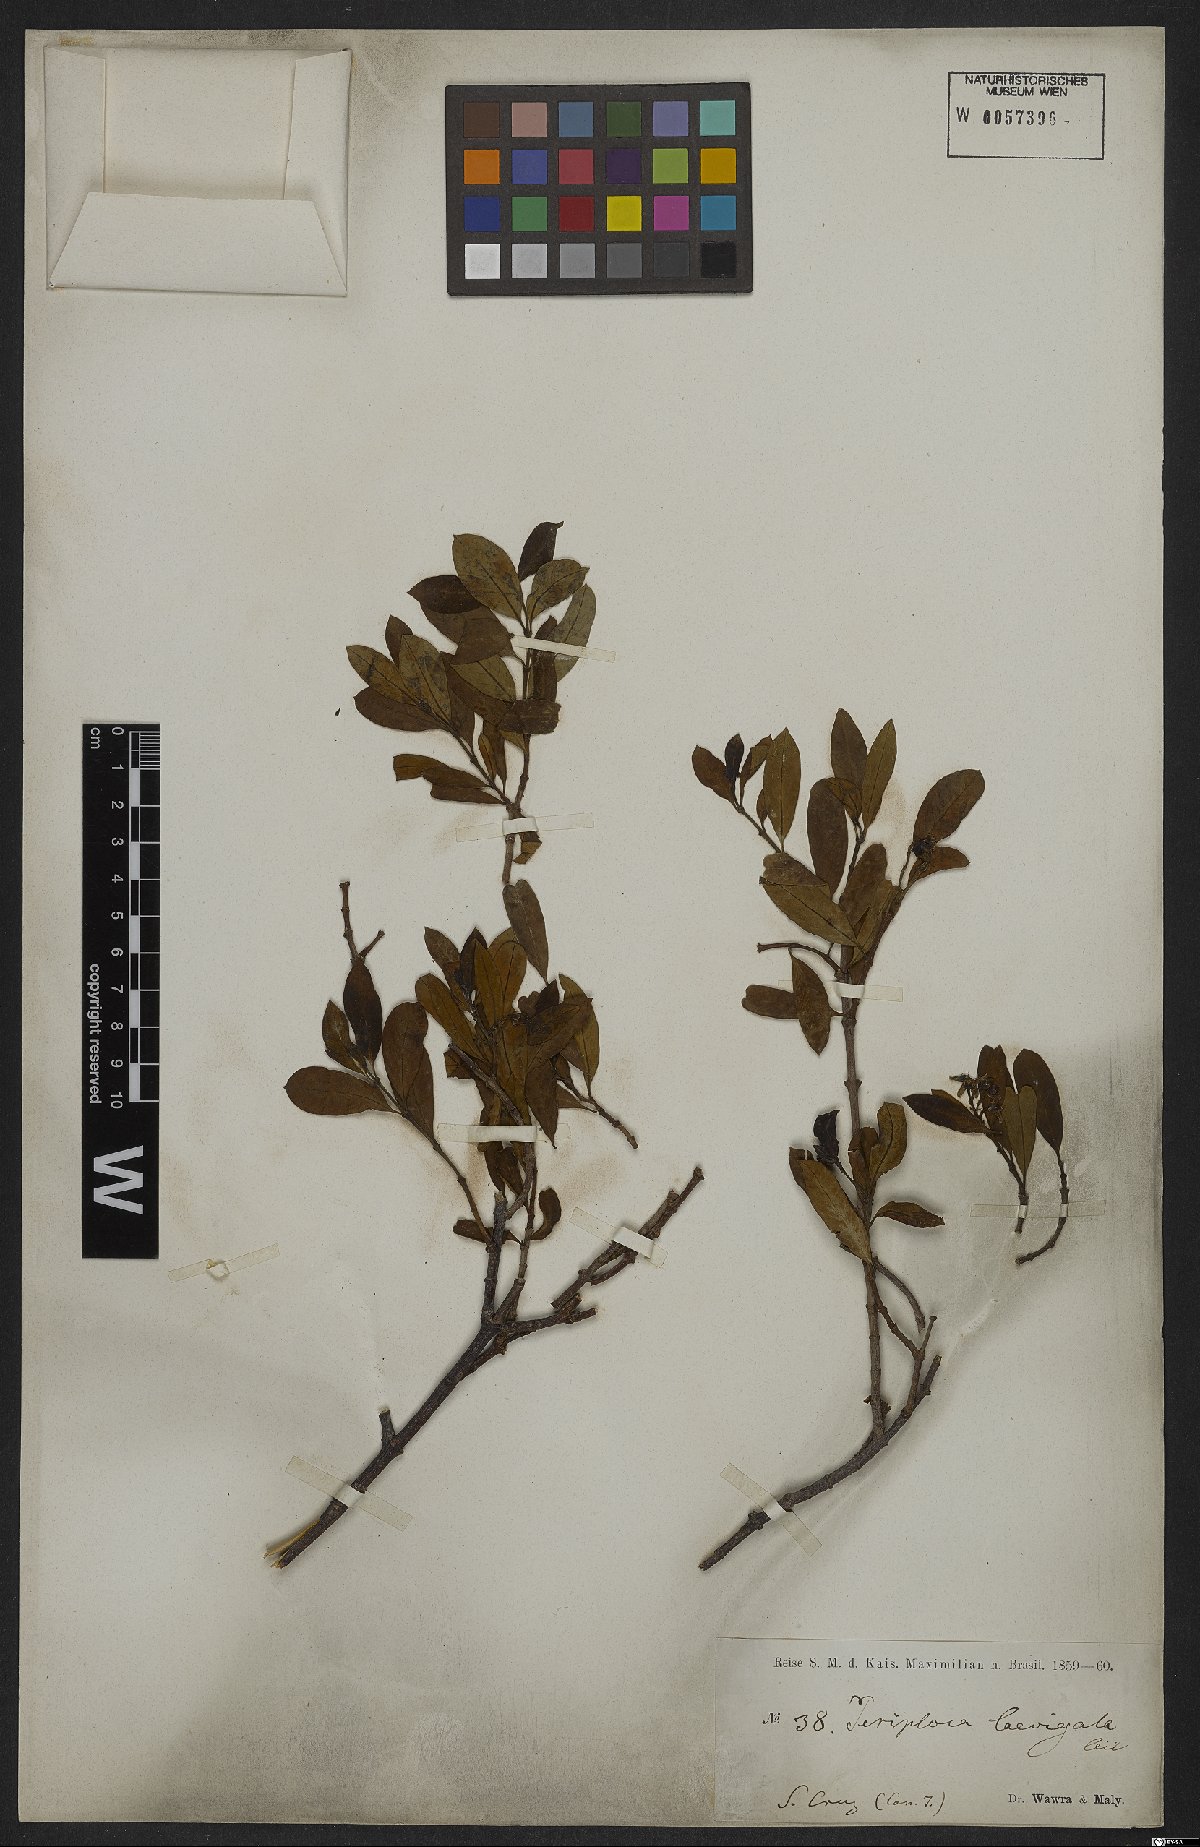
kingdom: Plantae
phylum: Tracheophyta
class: Magnoliopsida
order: Gentianales
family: Apocynaceae
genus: Periploca
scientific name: Periploca laevigata
